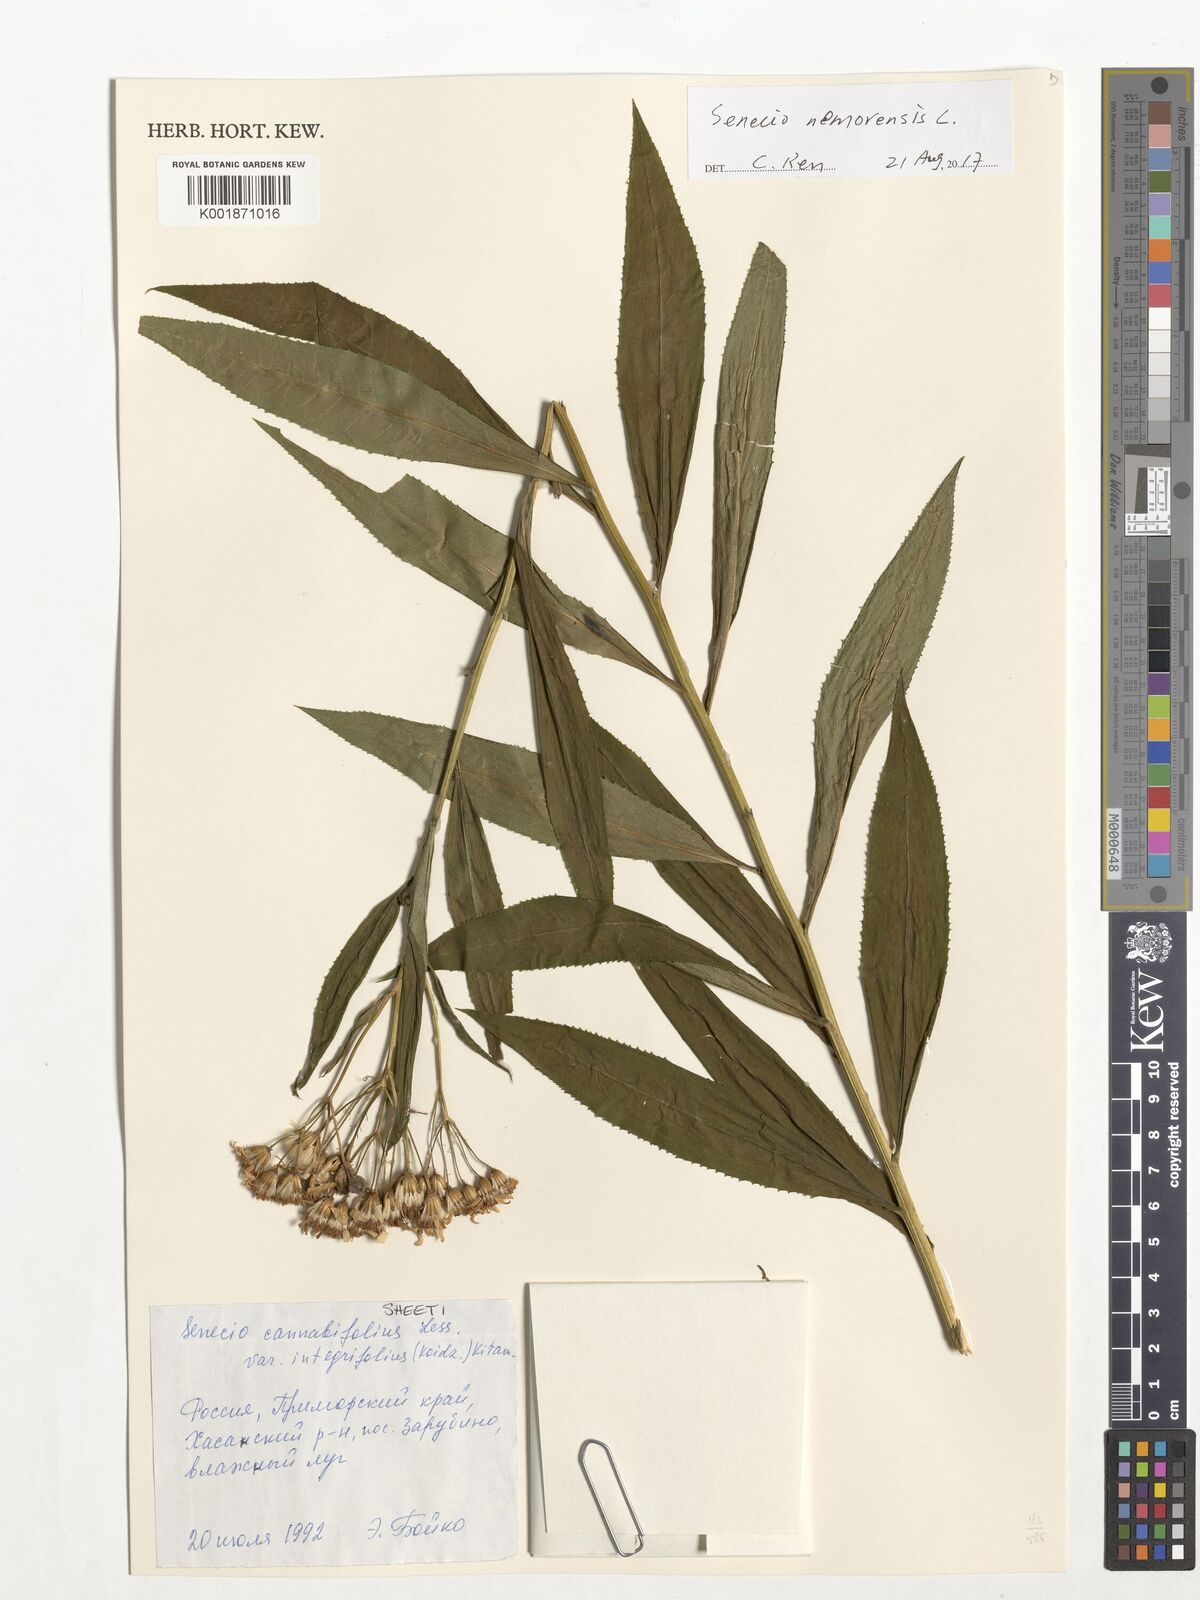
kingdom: Plantae
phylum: Tracheophyta
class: Magnoliopsida
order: Asterales
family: Asteraceae
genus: Senecio
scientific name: Senecio nemorensis
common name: Alpine ragwort
